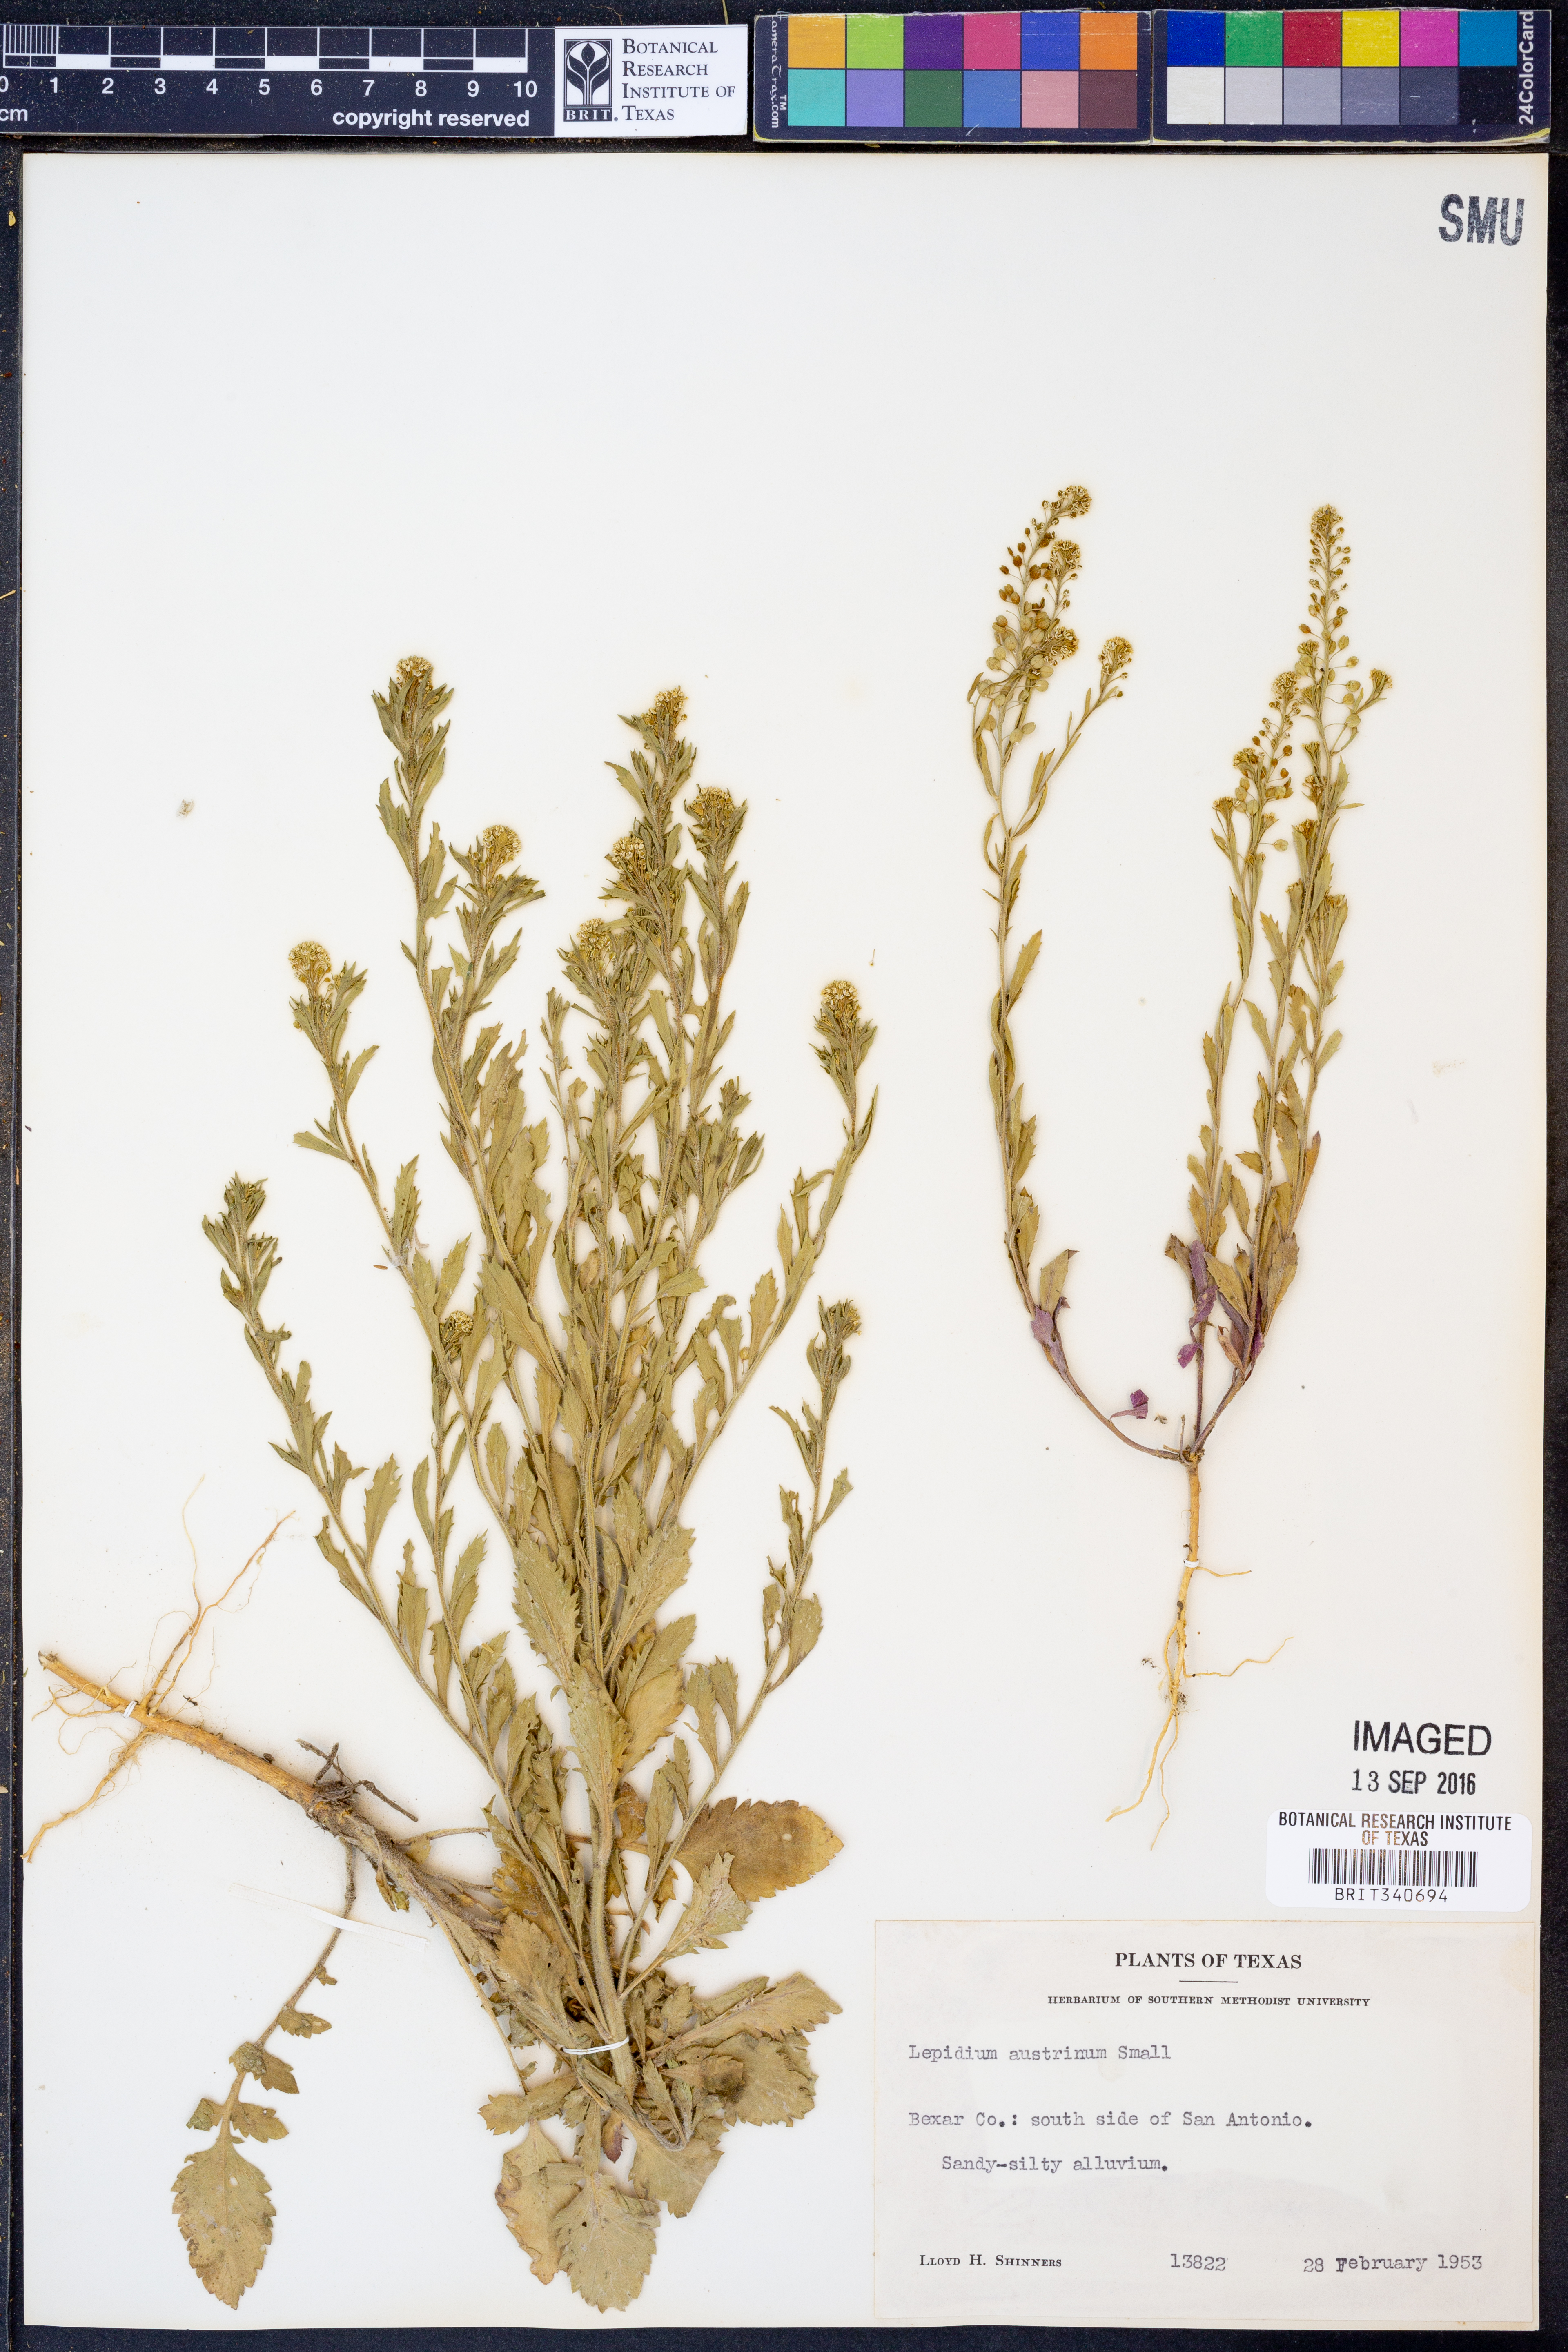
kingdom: Plantae
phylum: Tracheophyta
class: Magnoliopsida
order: Brassicales
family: Brassicaceae
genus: Lepidium
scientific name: Lepidium austrinum
